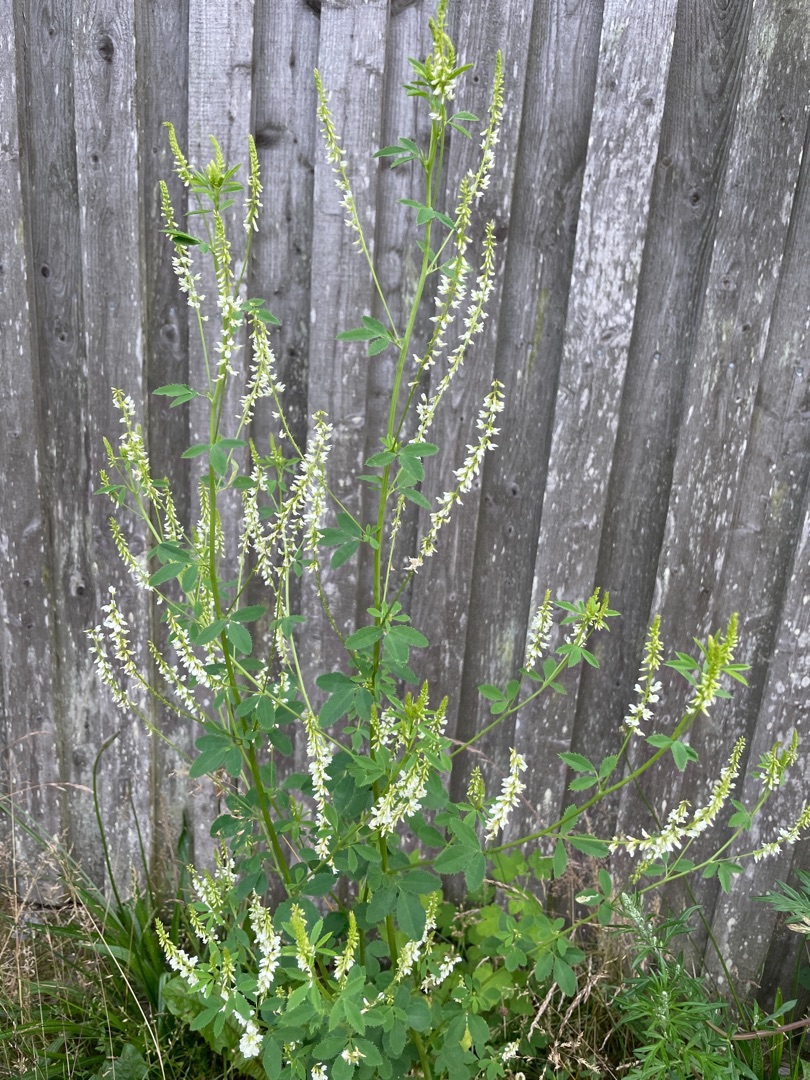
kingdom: Plantae
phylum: Tracheophyta
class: Magnoliopsida
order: Fabales
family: Fabaceae
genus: Melilotus
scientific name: Melilotus albus
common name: Hvid stenkløver
